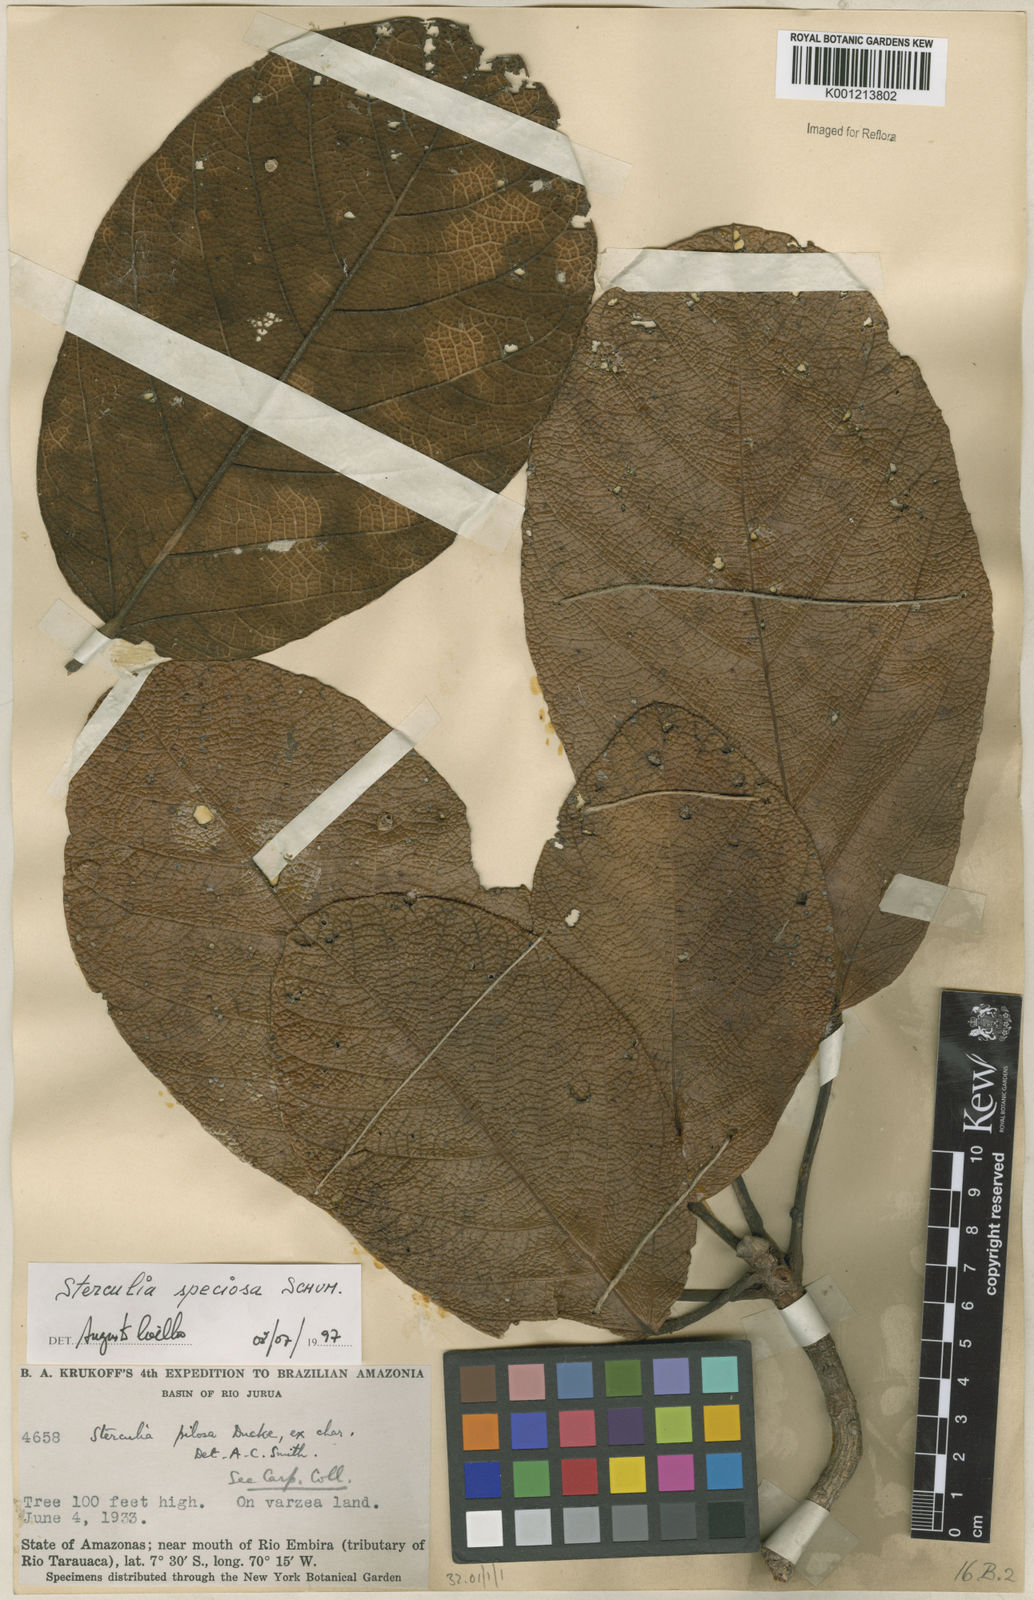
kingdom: Plantae
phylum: Tracheophyta
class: Magnoliopsida
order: Malvales
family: Malvaceae
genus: Sterculia
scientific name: Sterculia speciosa
